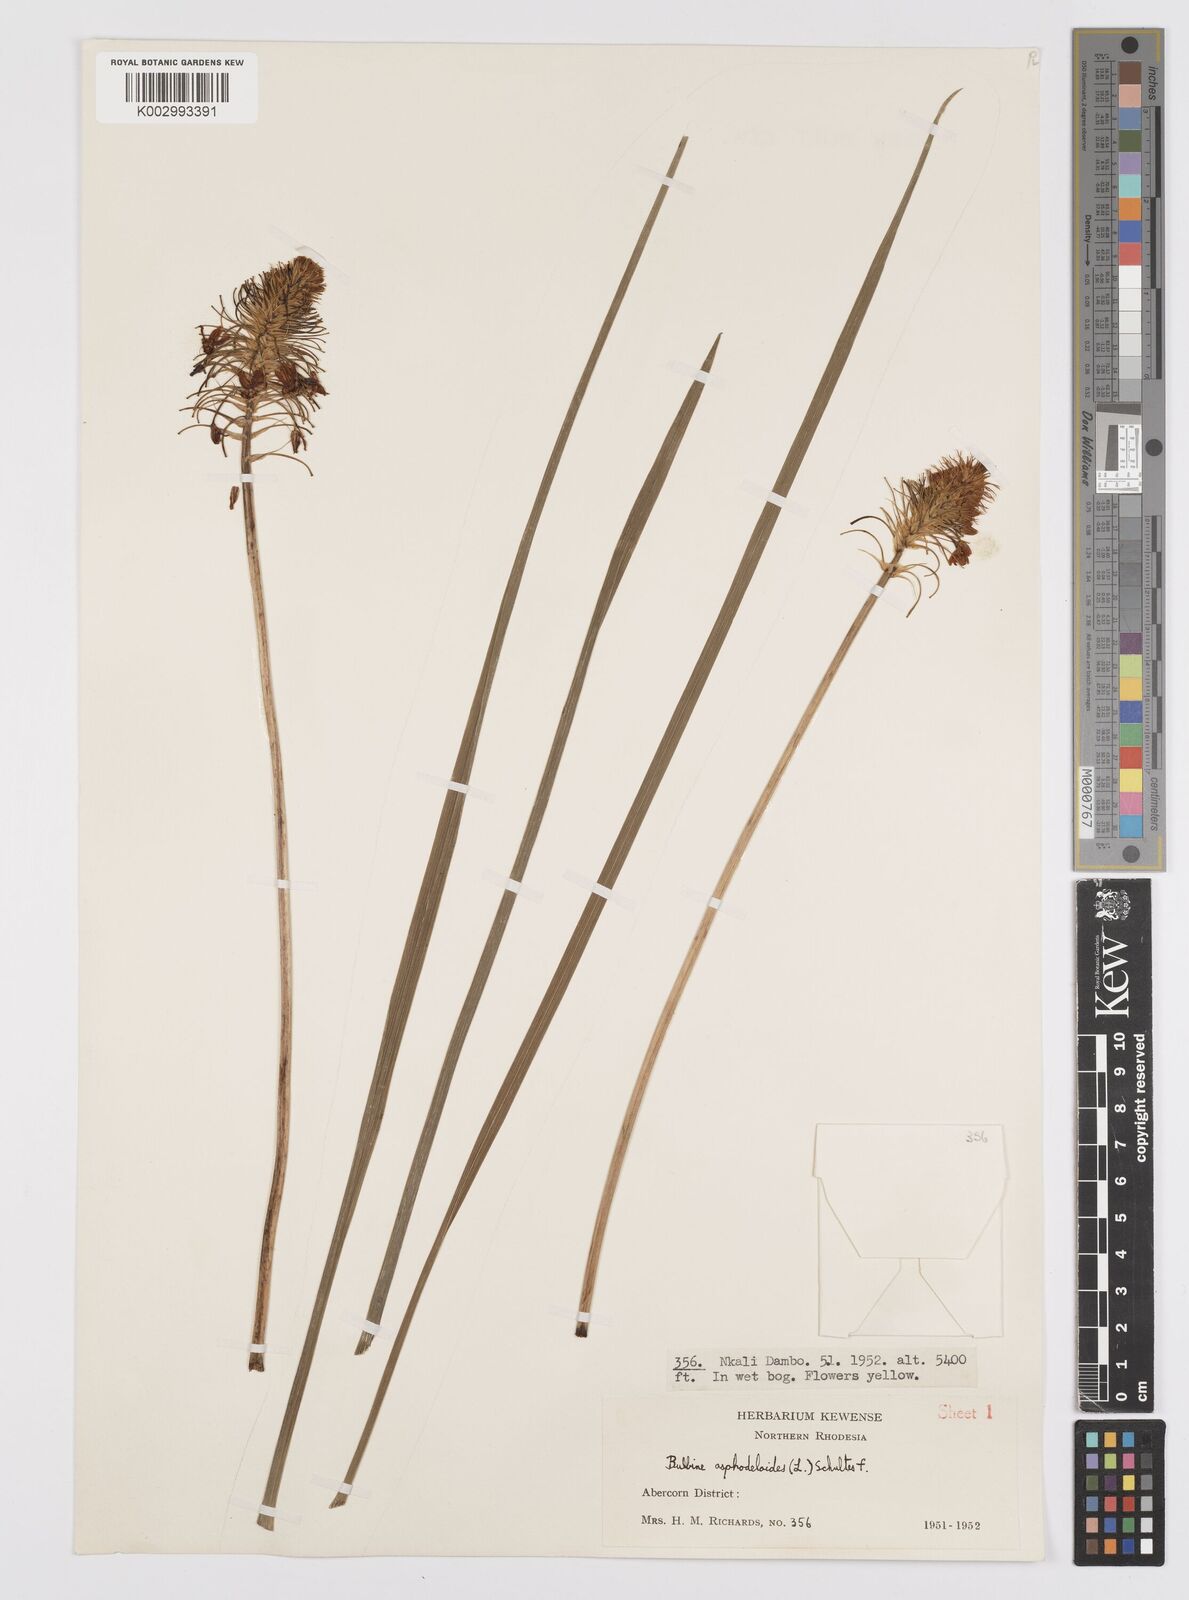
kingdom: Plantae
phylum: Tracheophyta
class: Liliopsida
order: Asparagales
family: Asphodelaceae
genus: Bulbine
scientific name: Bulbine abyssinica
